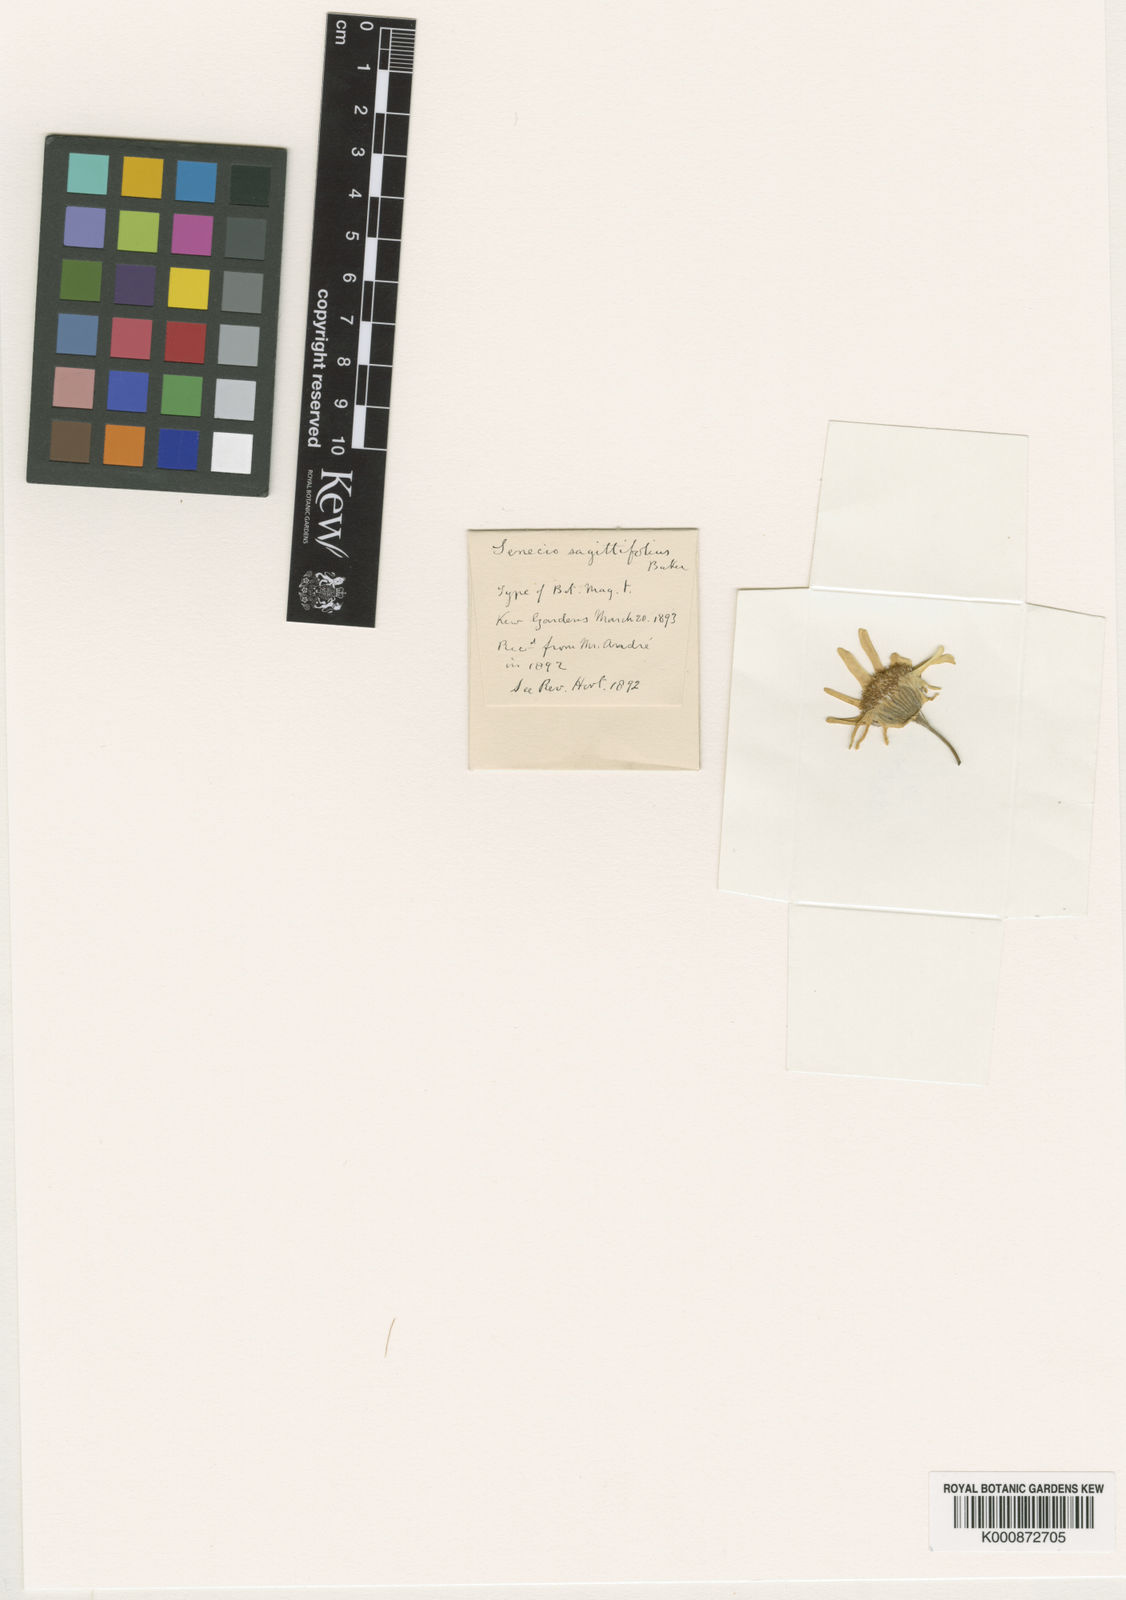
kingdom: Plantae
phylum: Tracheophyta
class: Magnoliopsida
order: Asterales
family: Asteraceae
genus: Senecio
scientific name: Senecio bonariensis
